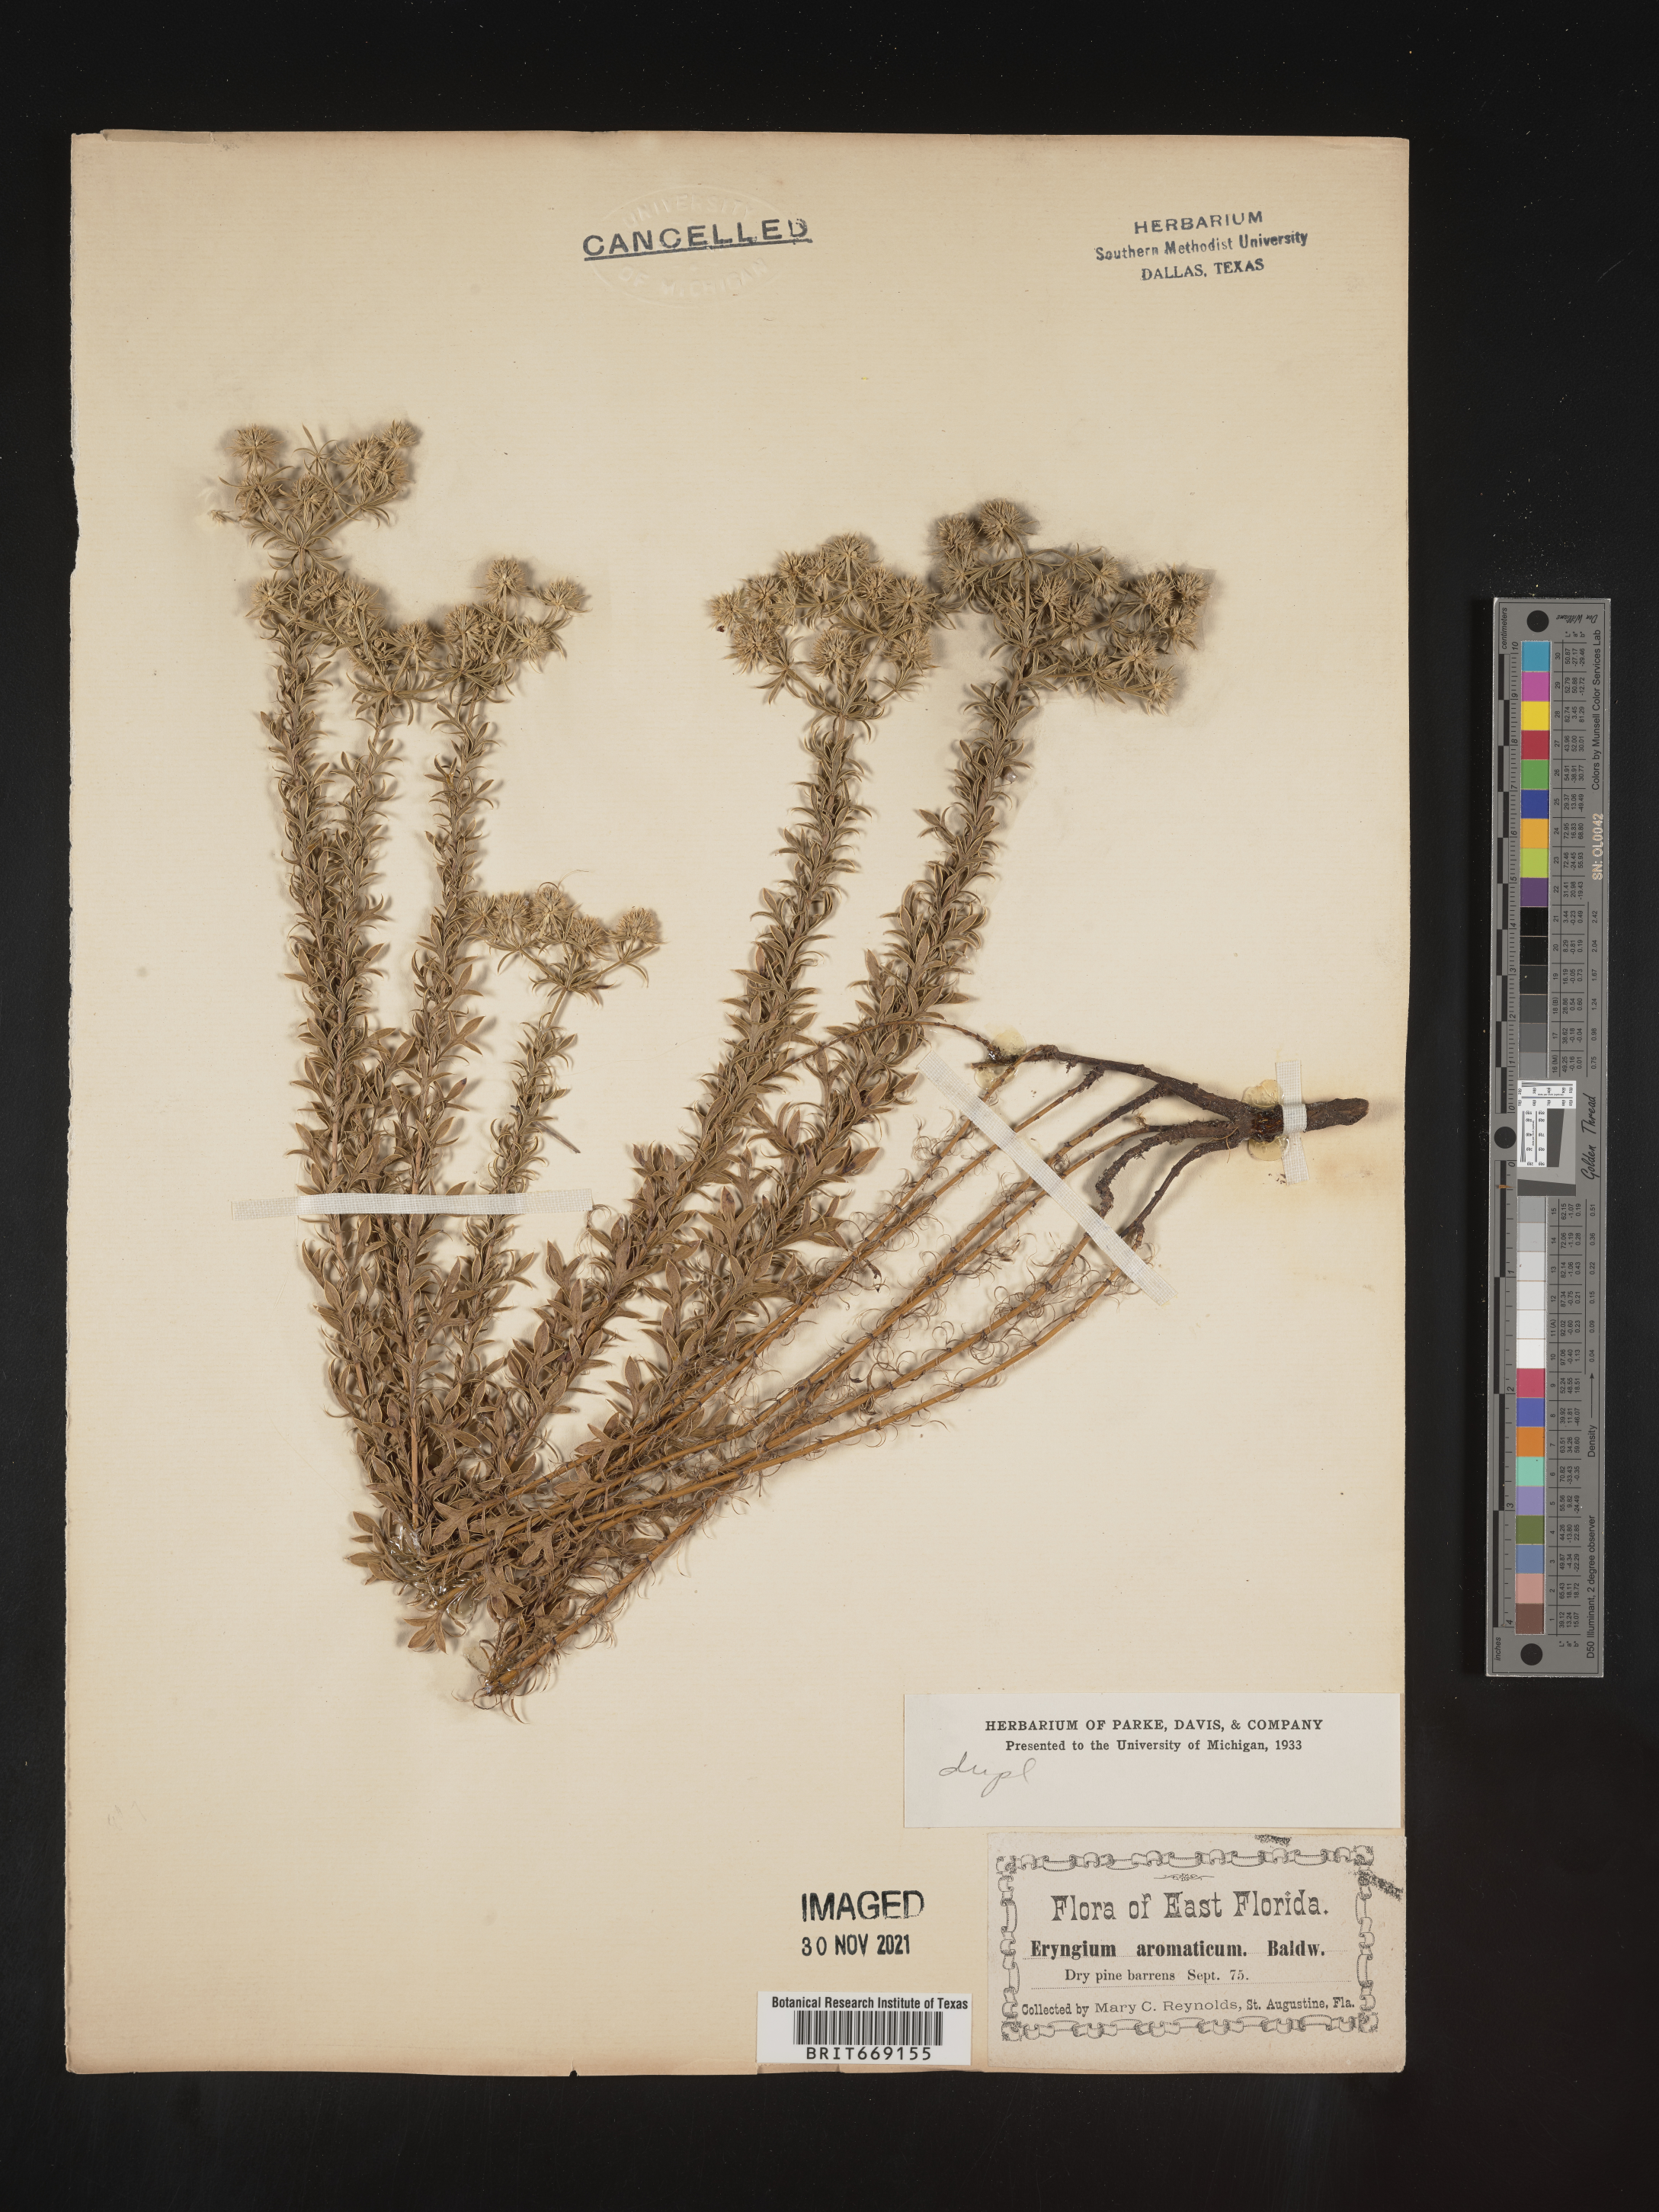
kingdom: Plantae
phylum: Tracheophyta
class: Magnoliopsida
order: Apiales
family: Apiaceae
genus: Eryngium
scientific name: Eryngium aromaticum
